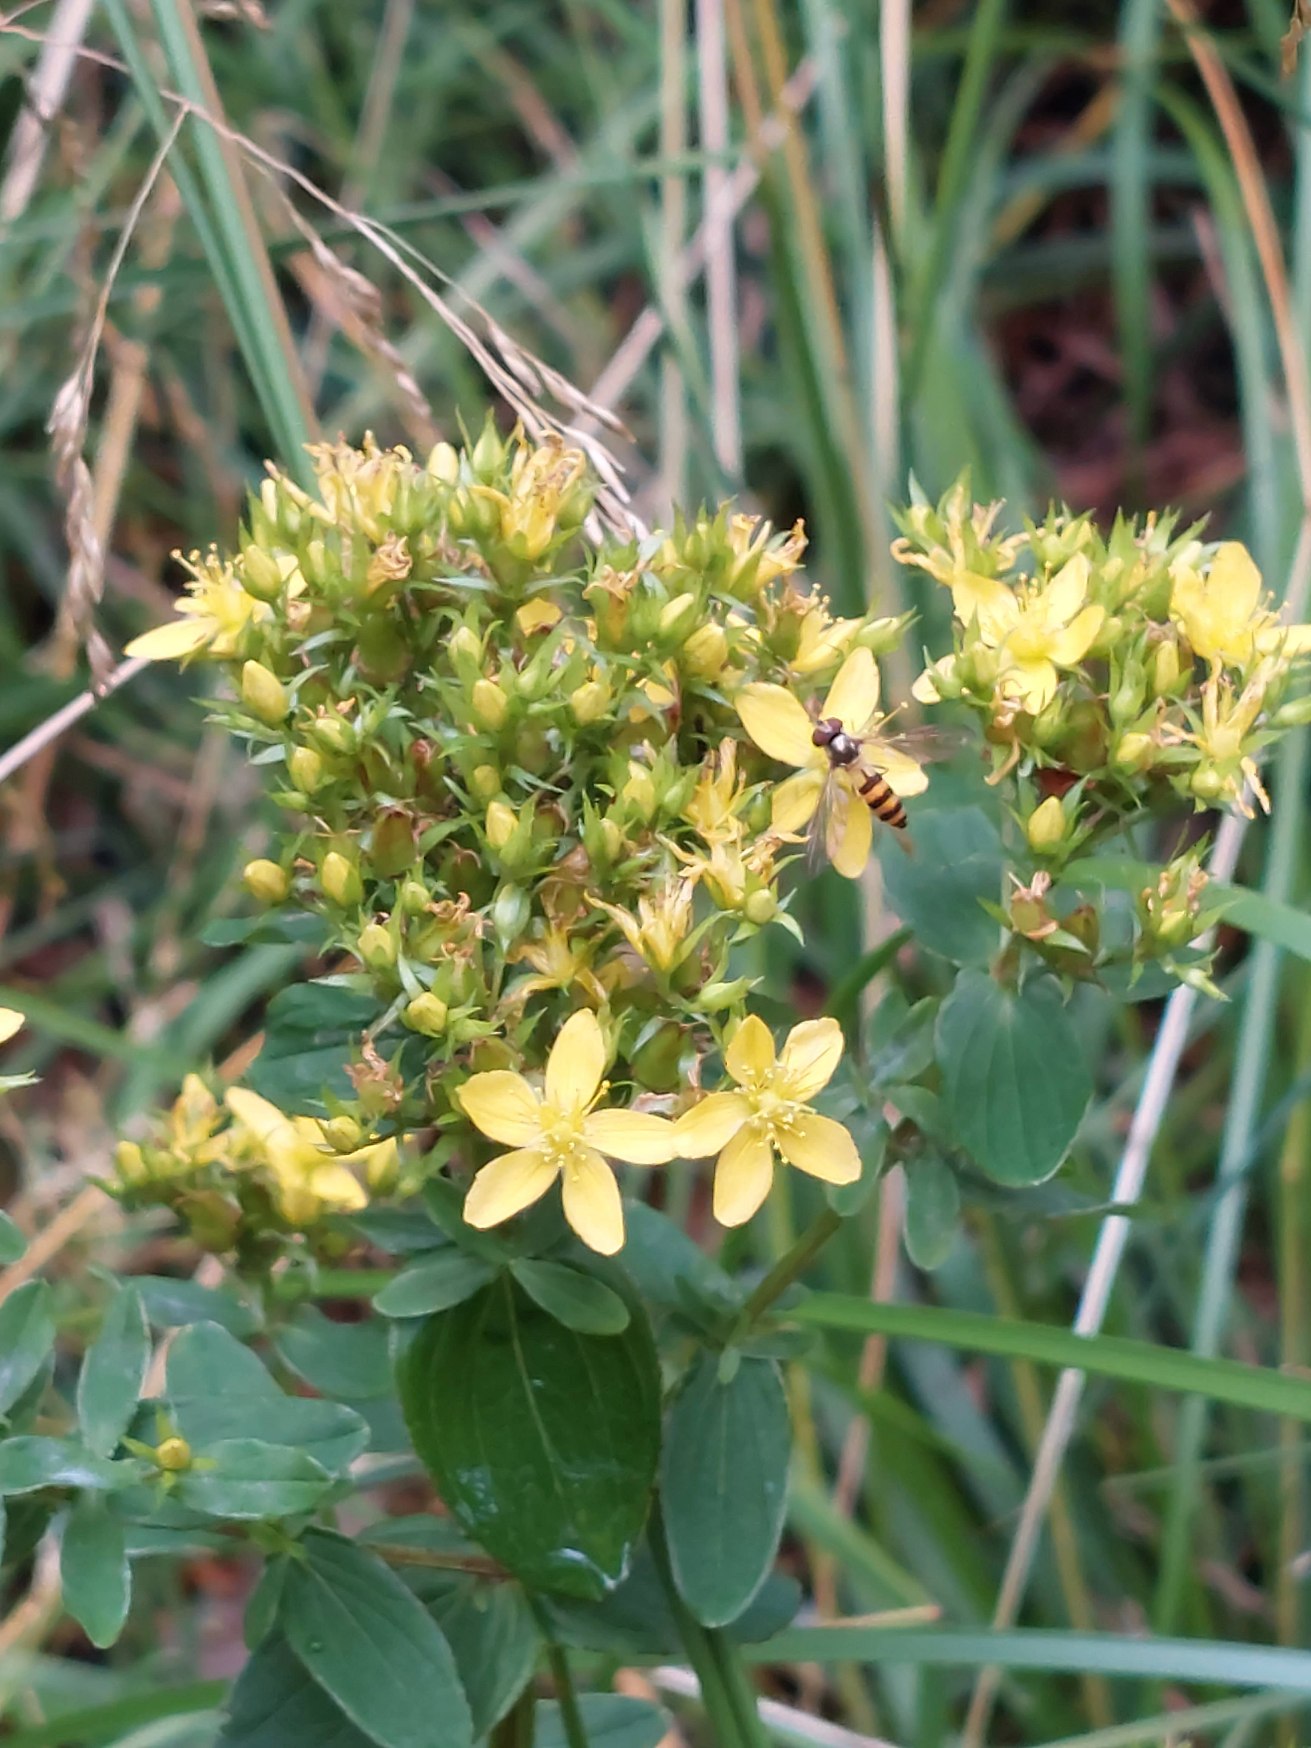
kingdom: Plantae
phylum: Tracheophyta
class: Magnoliopsida
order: Malpighiales
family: Hypericaceae
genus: Hypericum
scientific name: Hypericum tetrapterum
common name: Vinget perikon
